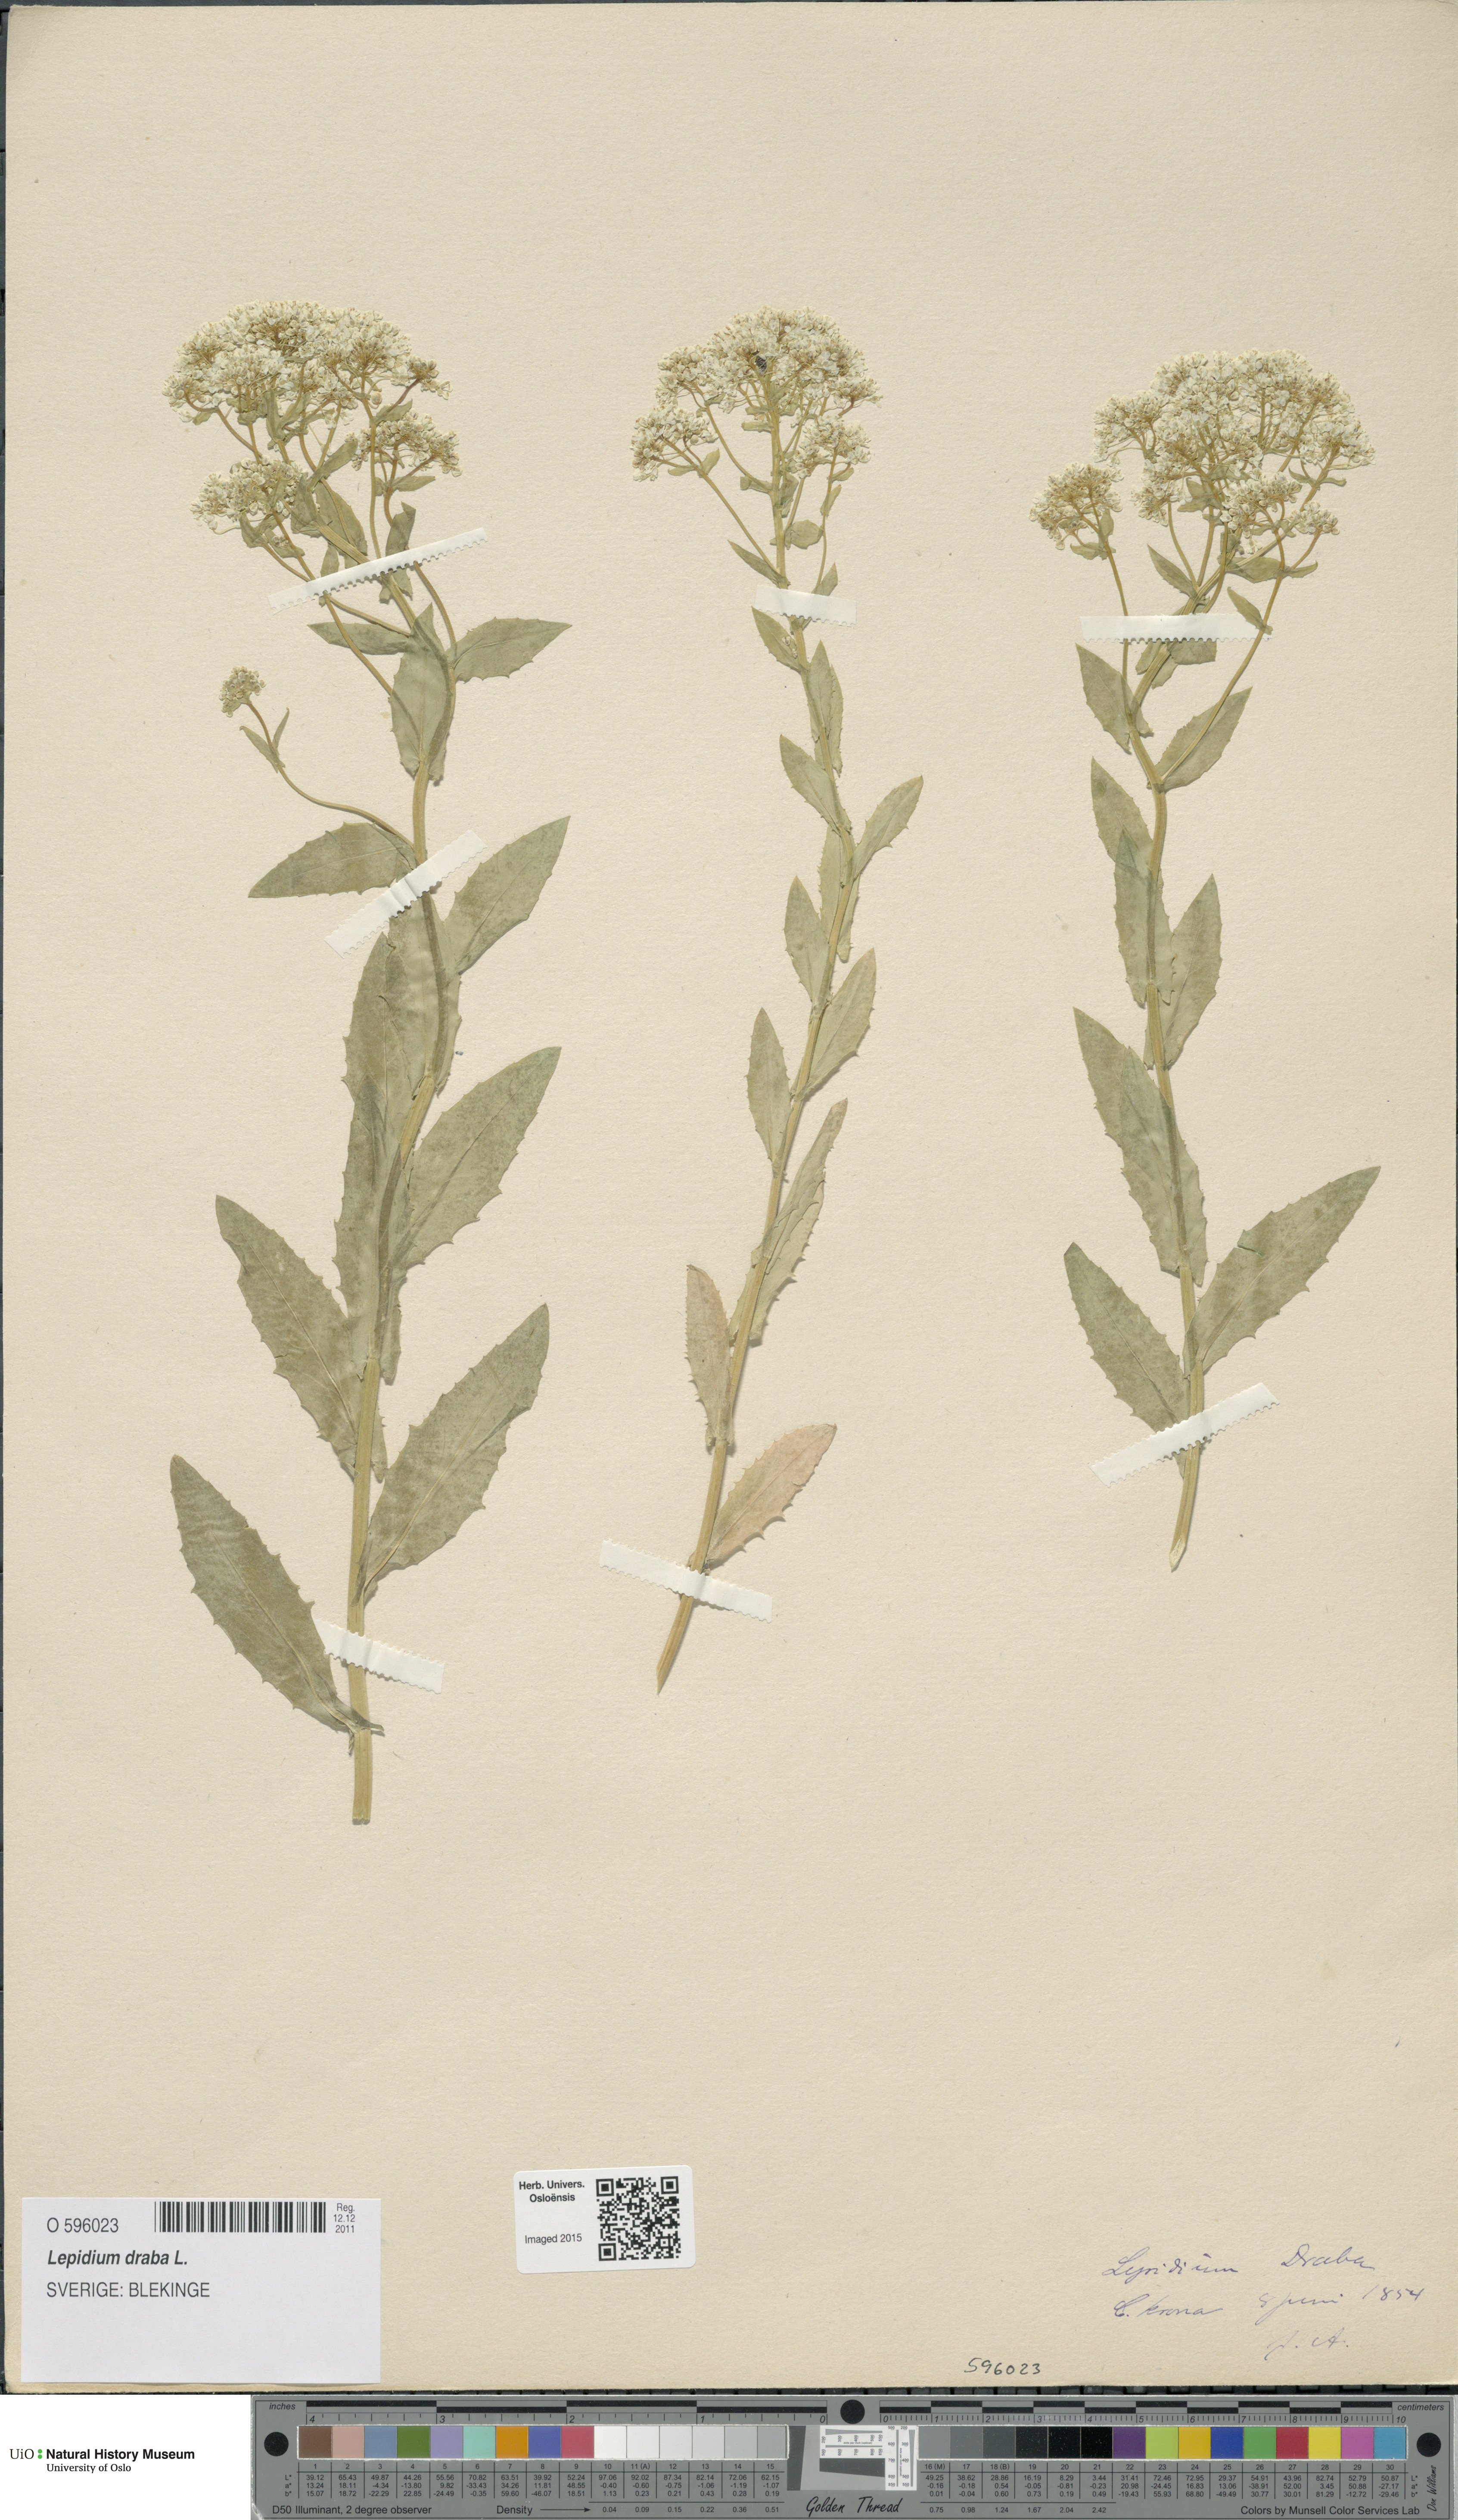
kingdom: Plantae
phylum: Tracheophyta
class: Magnoliopsida
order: Brassicales
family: Brassicaceae
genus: Lepidium
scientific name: Lepidium draba
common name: Hoary cress
